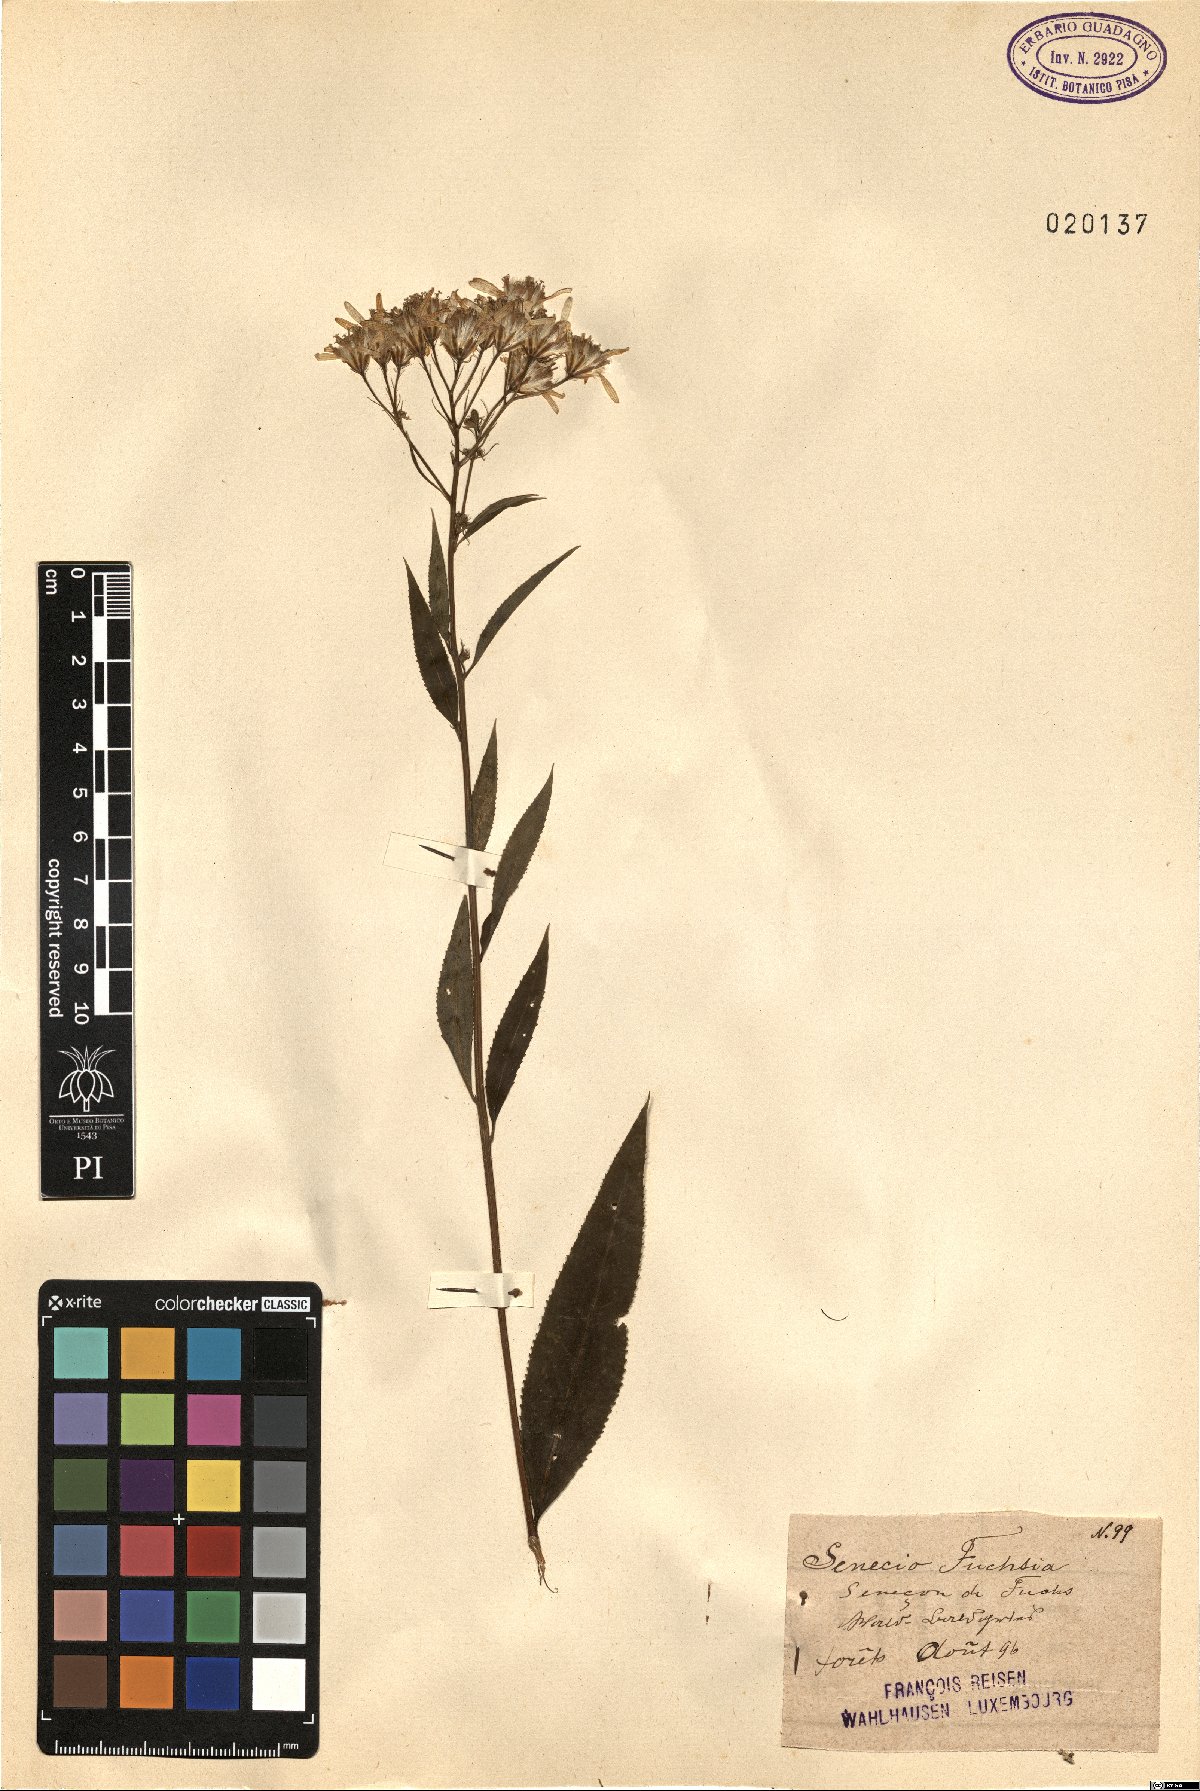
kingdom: Plantae
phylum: Tracheophyta
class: Magnoliopsida
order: Asterales
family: Asteraceae
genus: Senecio
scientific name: Senecio ovatus
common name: Wood ragwort
